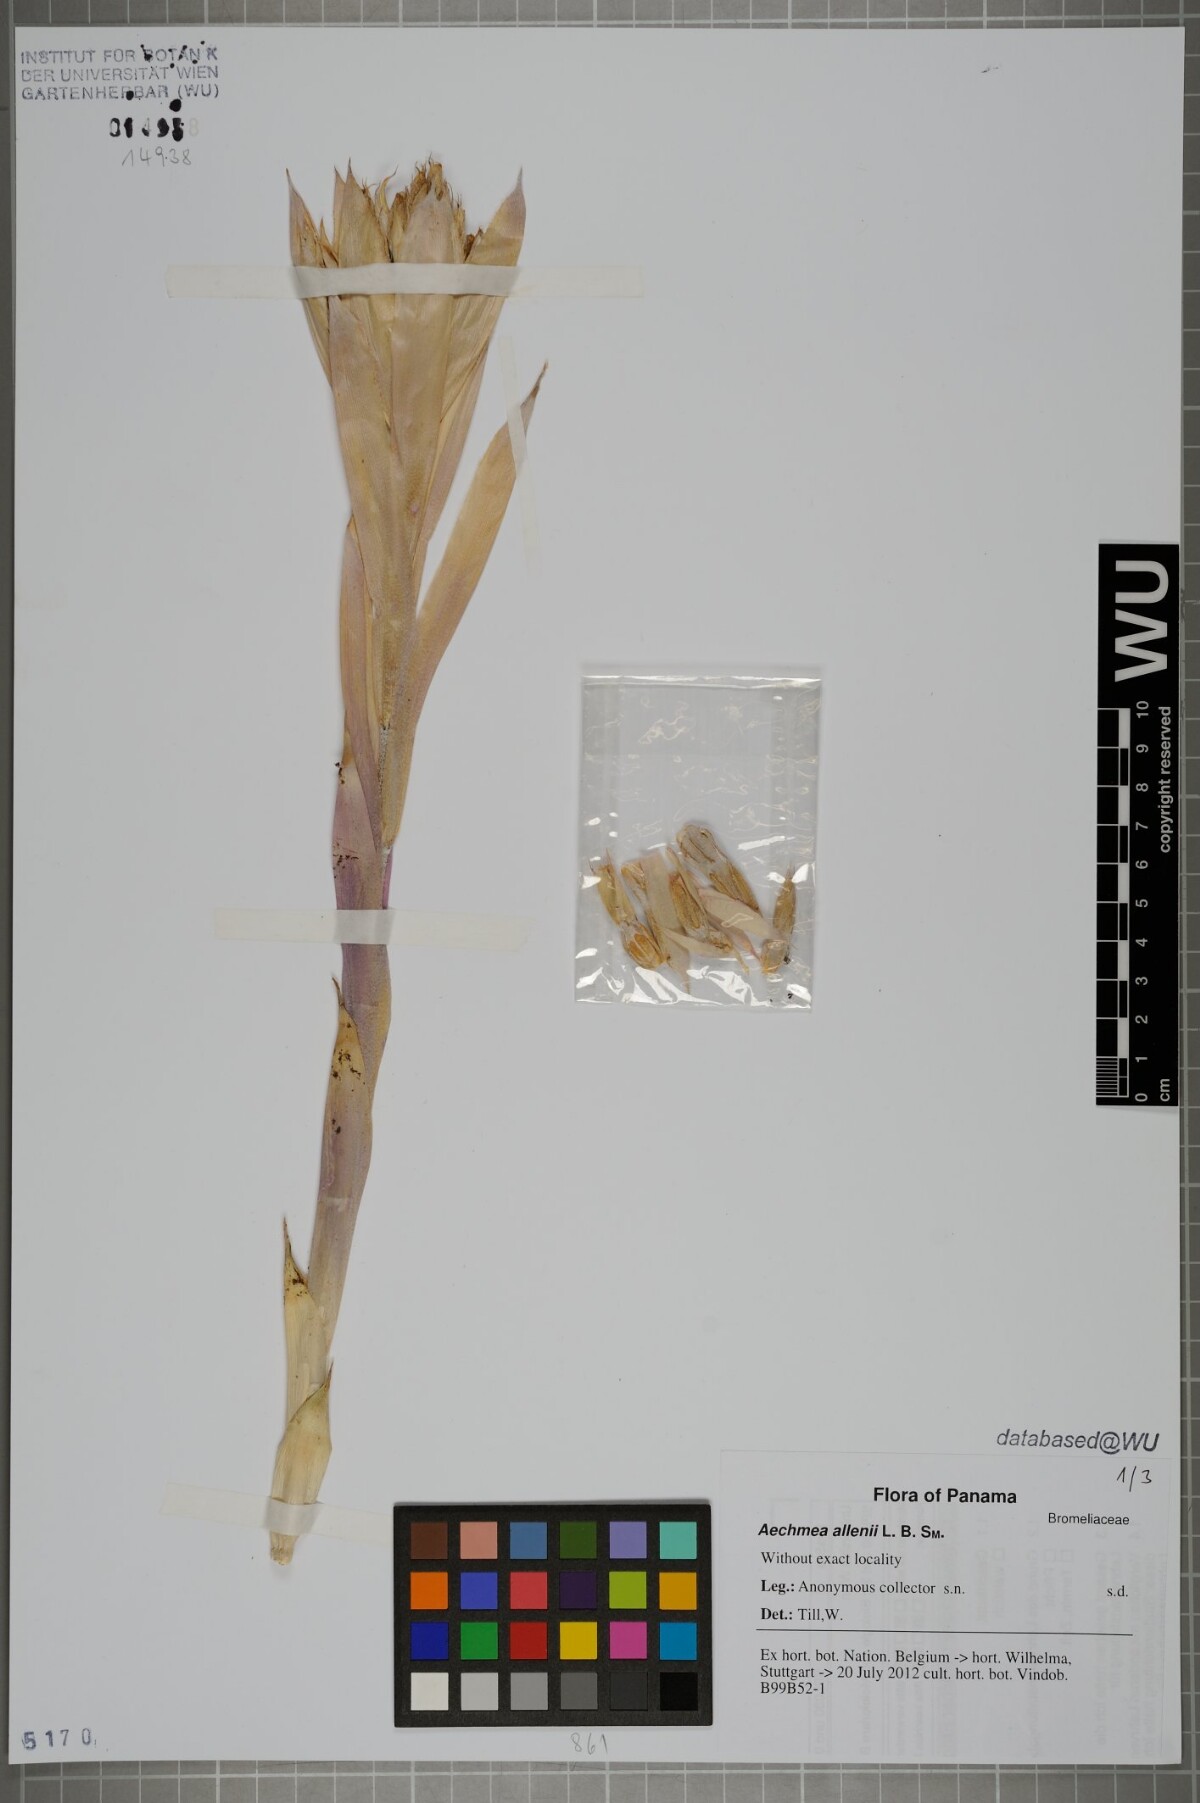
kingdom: Plantae
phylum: Tracheophyta
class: Liliopsida
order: Poales
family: Bromeliaceae
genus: Ronnbergia
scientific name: Ronnbergia allenii
